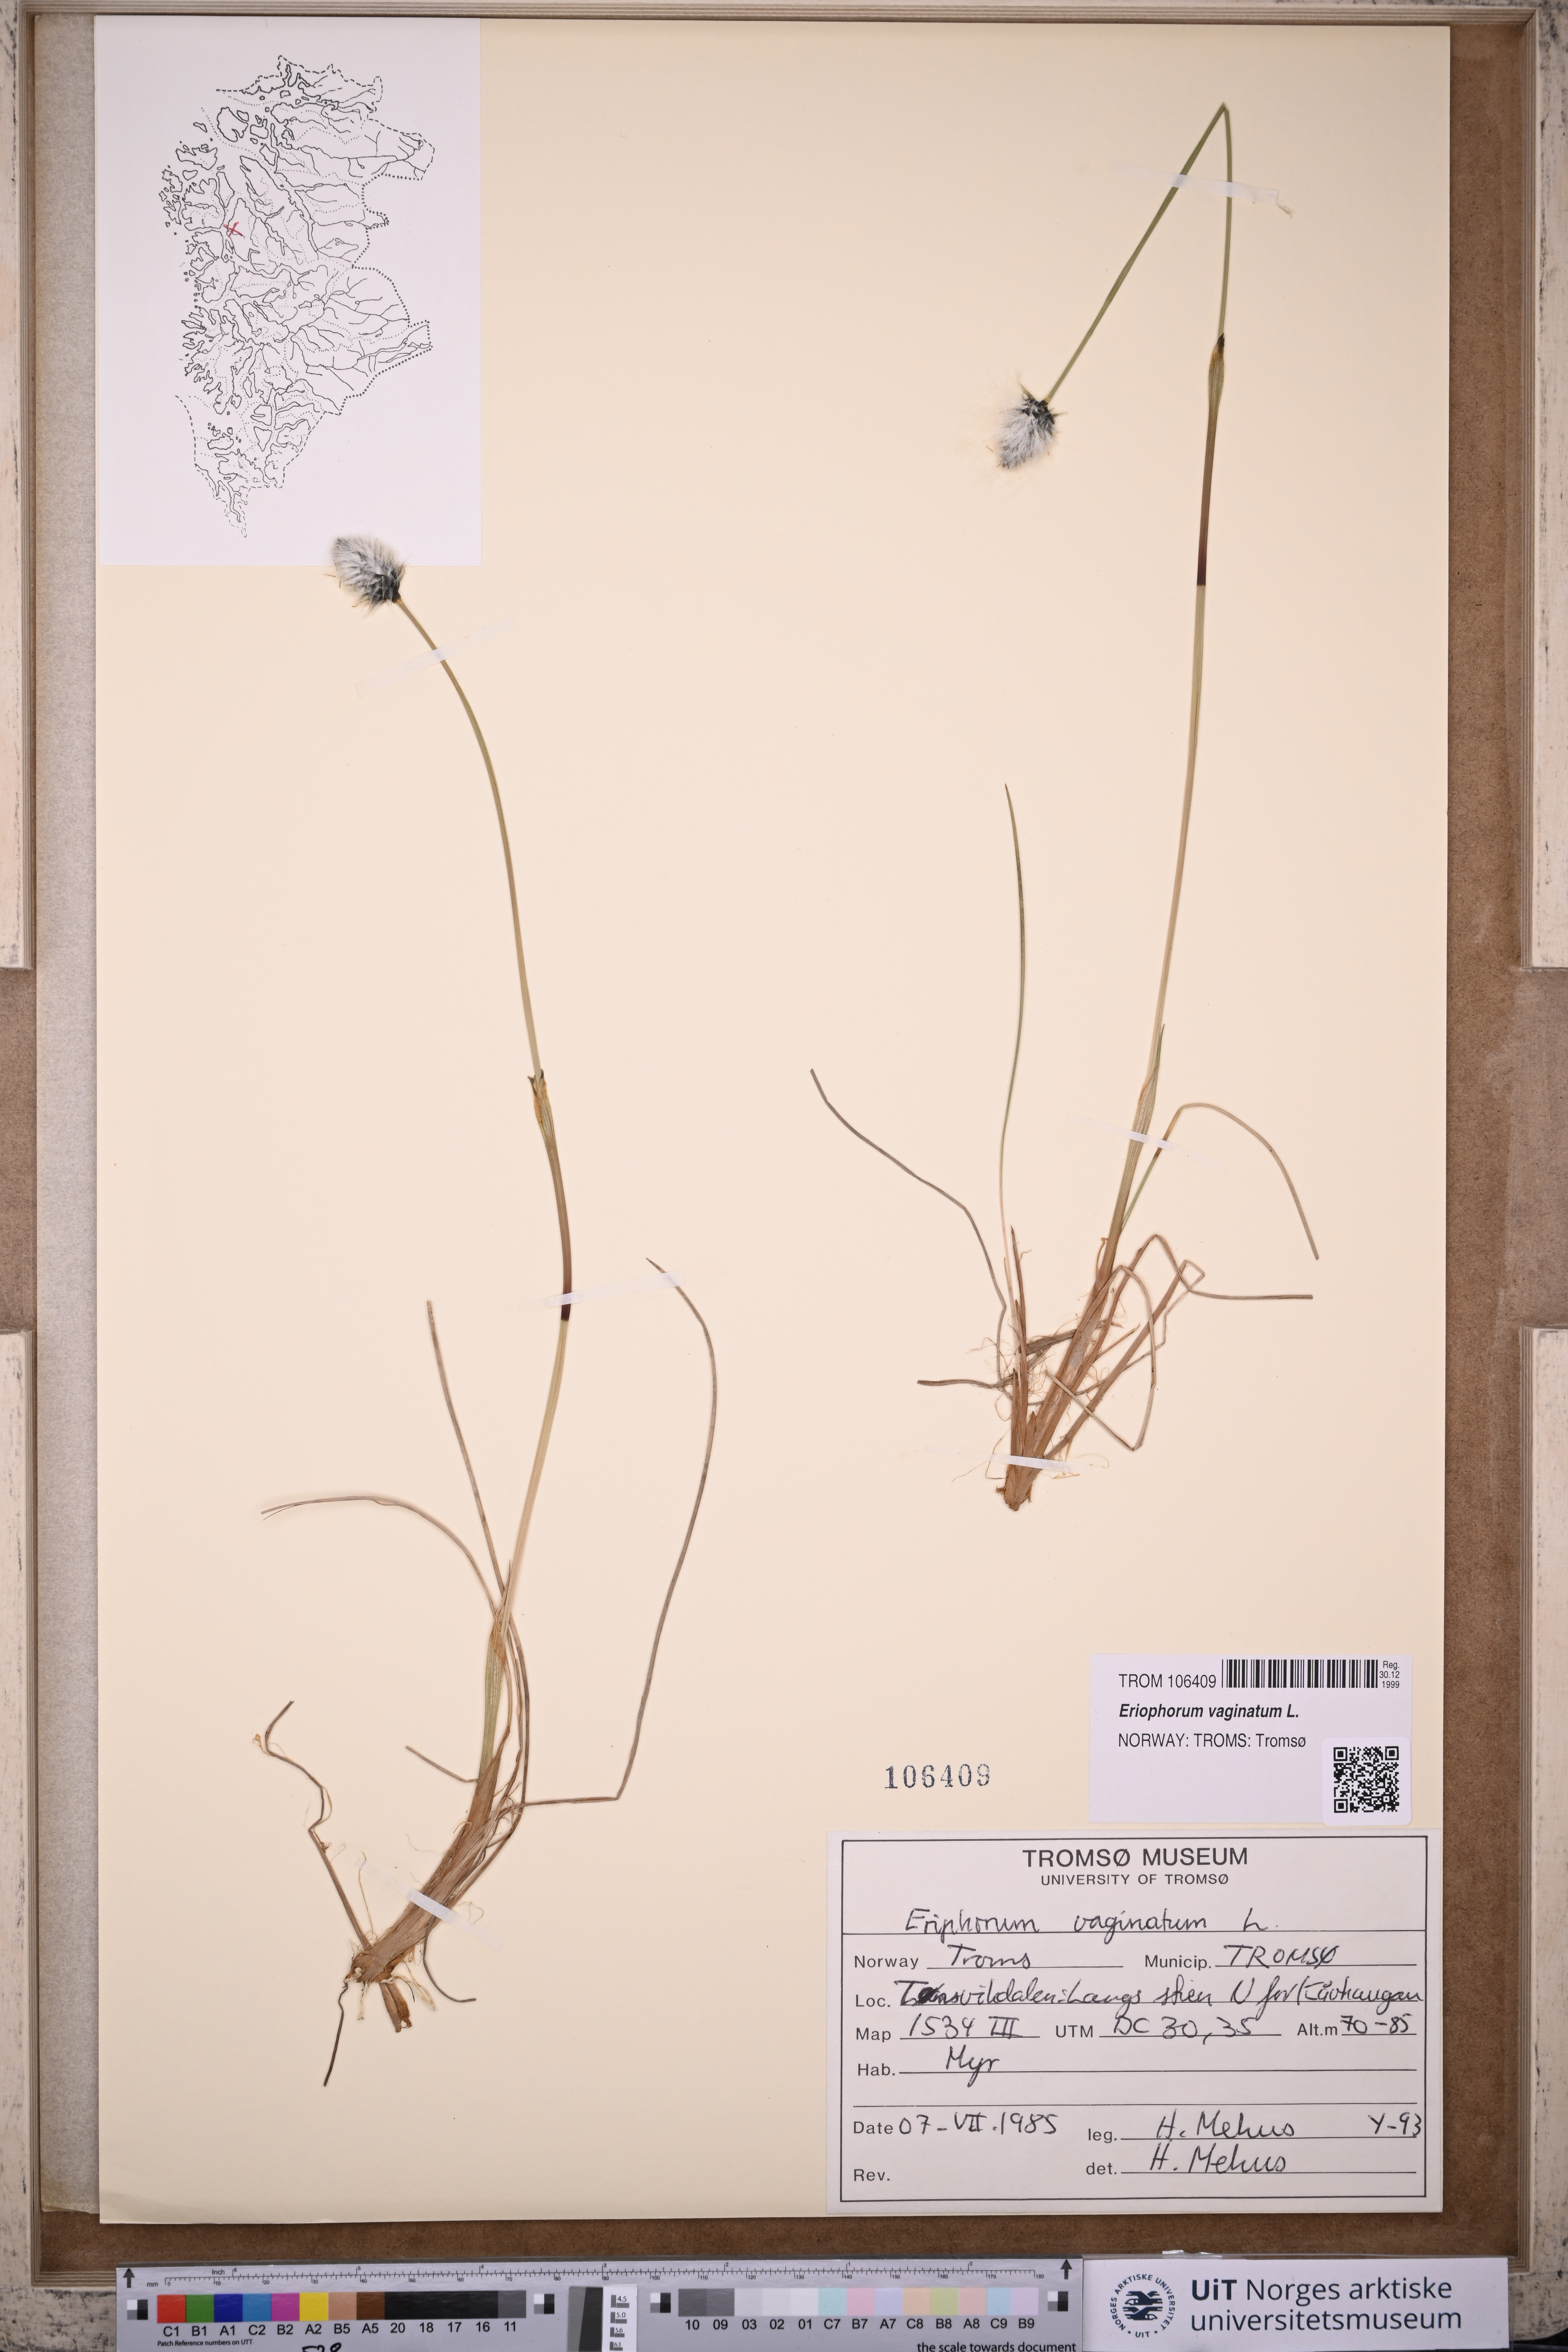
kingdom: Plantae
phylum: Tracheophyta
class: Liliopsida
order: Poales
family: Cyperaceae
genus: Eriophorum
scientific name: Eriophorum vaginatum
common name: Hare's-tail cottongrass
